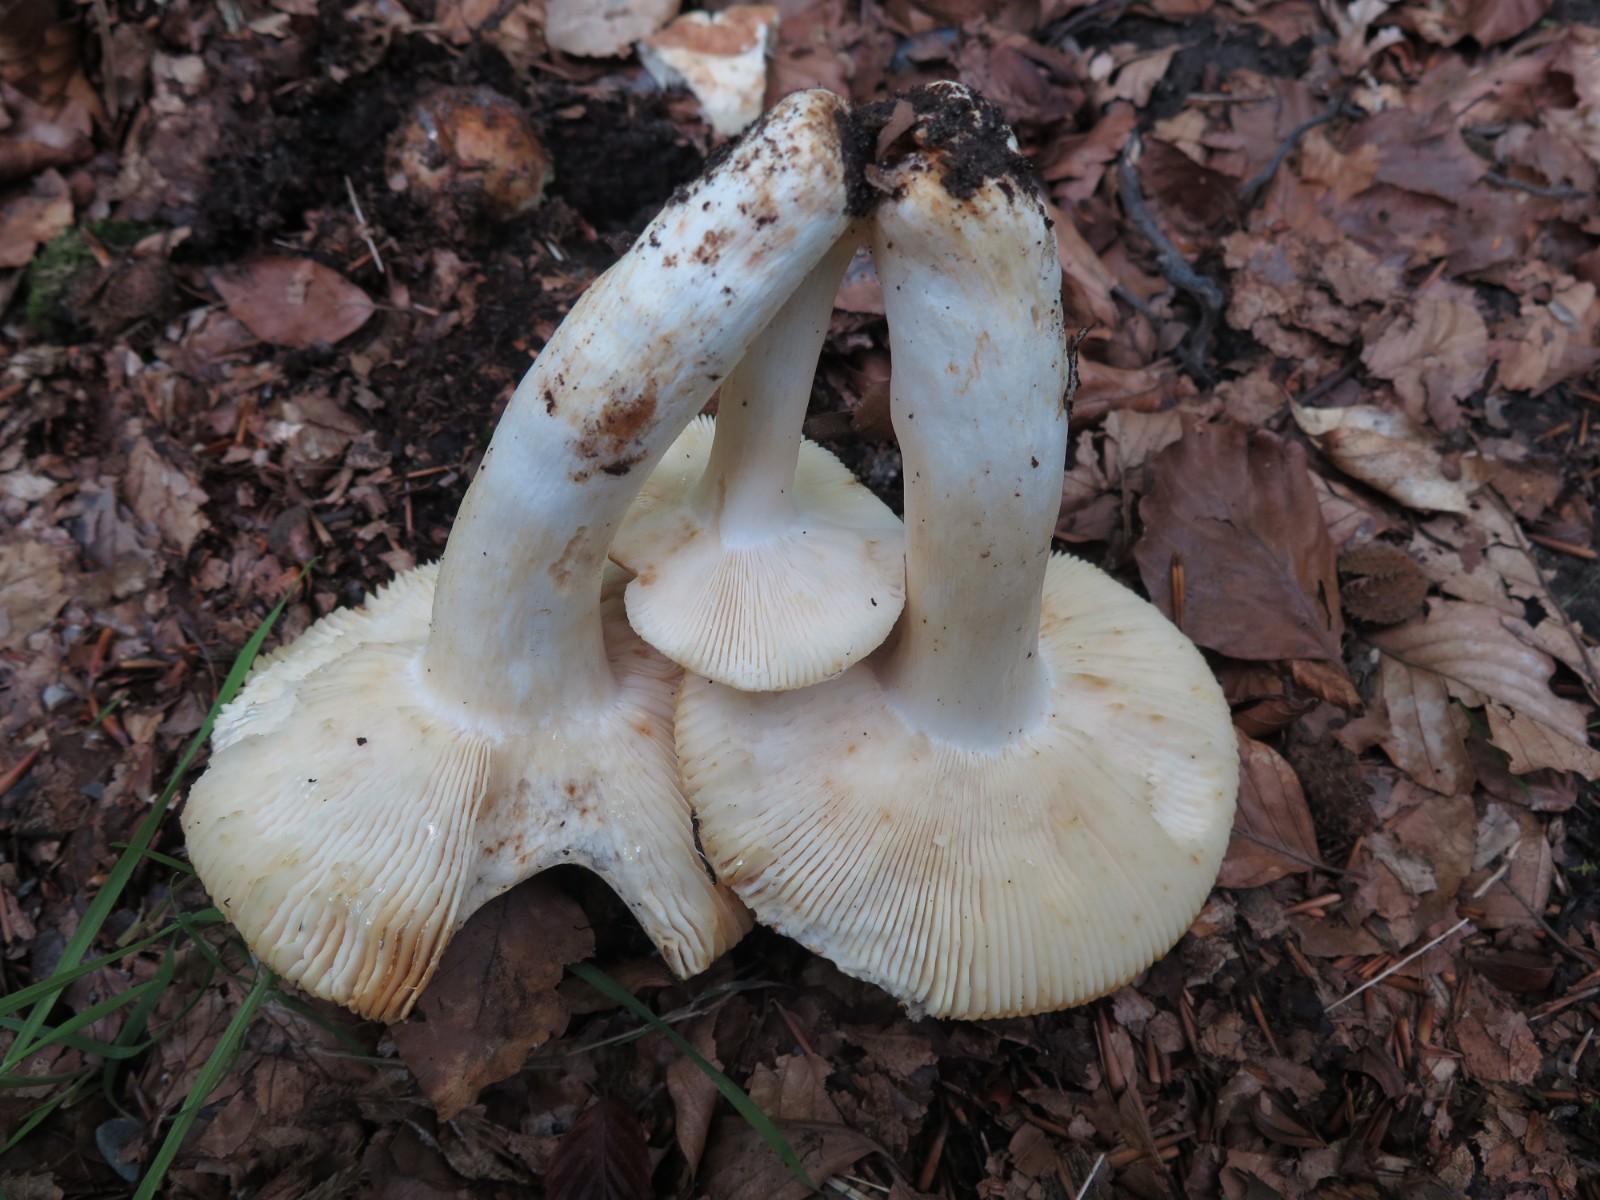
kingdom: Fungi
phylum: Basidiomycota
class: Agaricomycetes
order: Russulales
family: Russulaceae
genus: Russula
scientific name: Russula vesca
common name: spiselig skørhat
